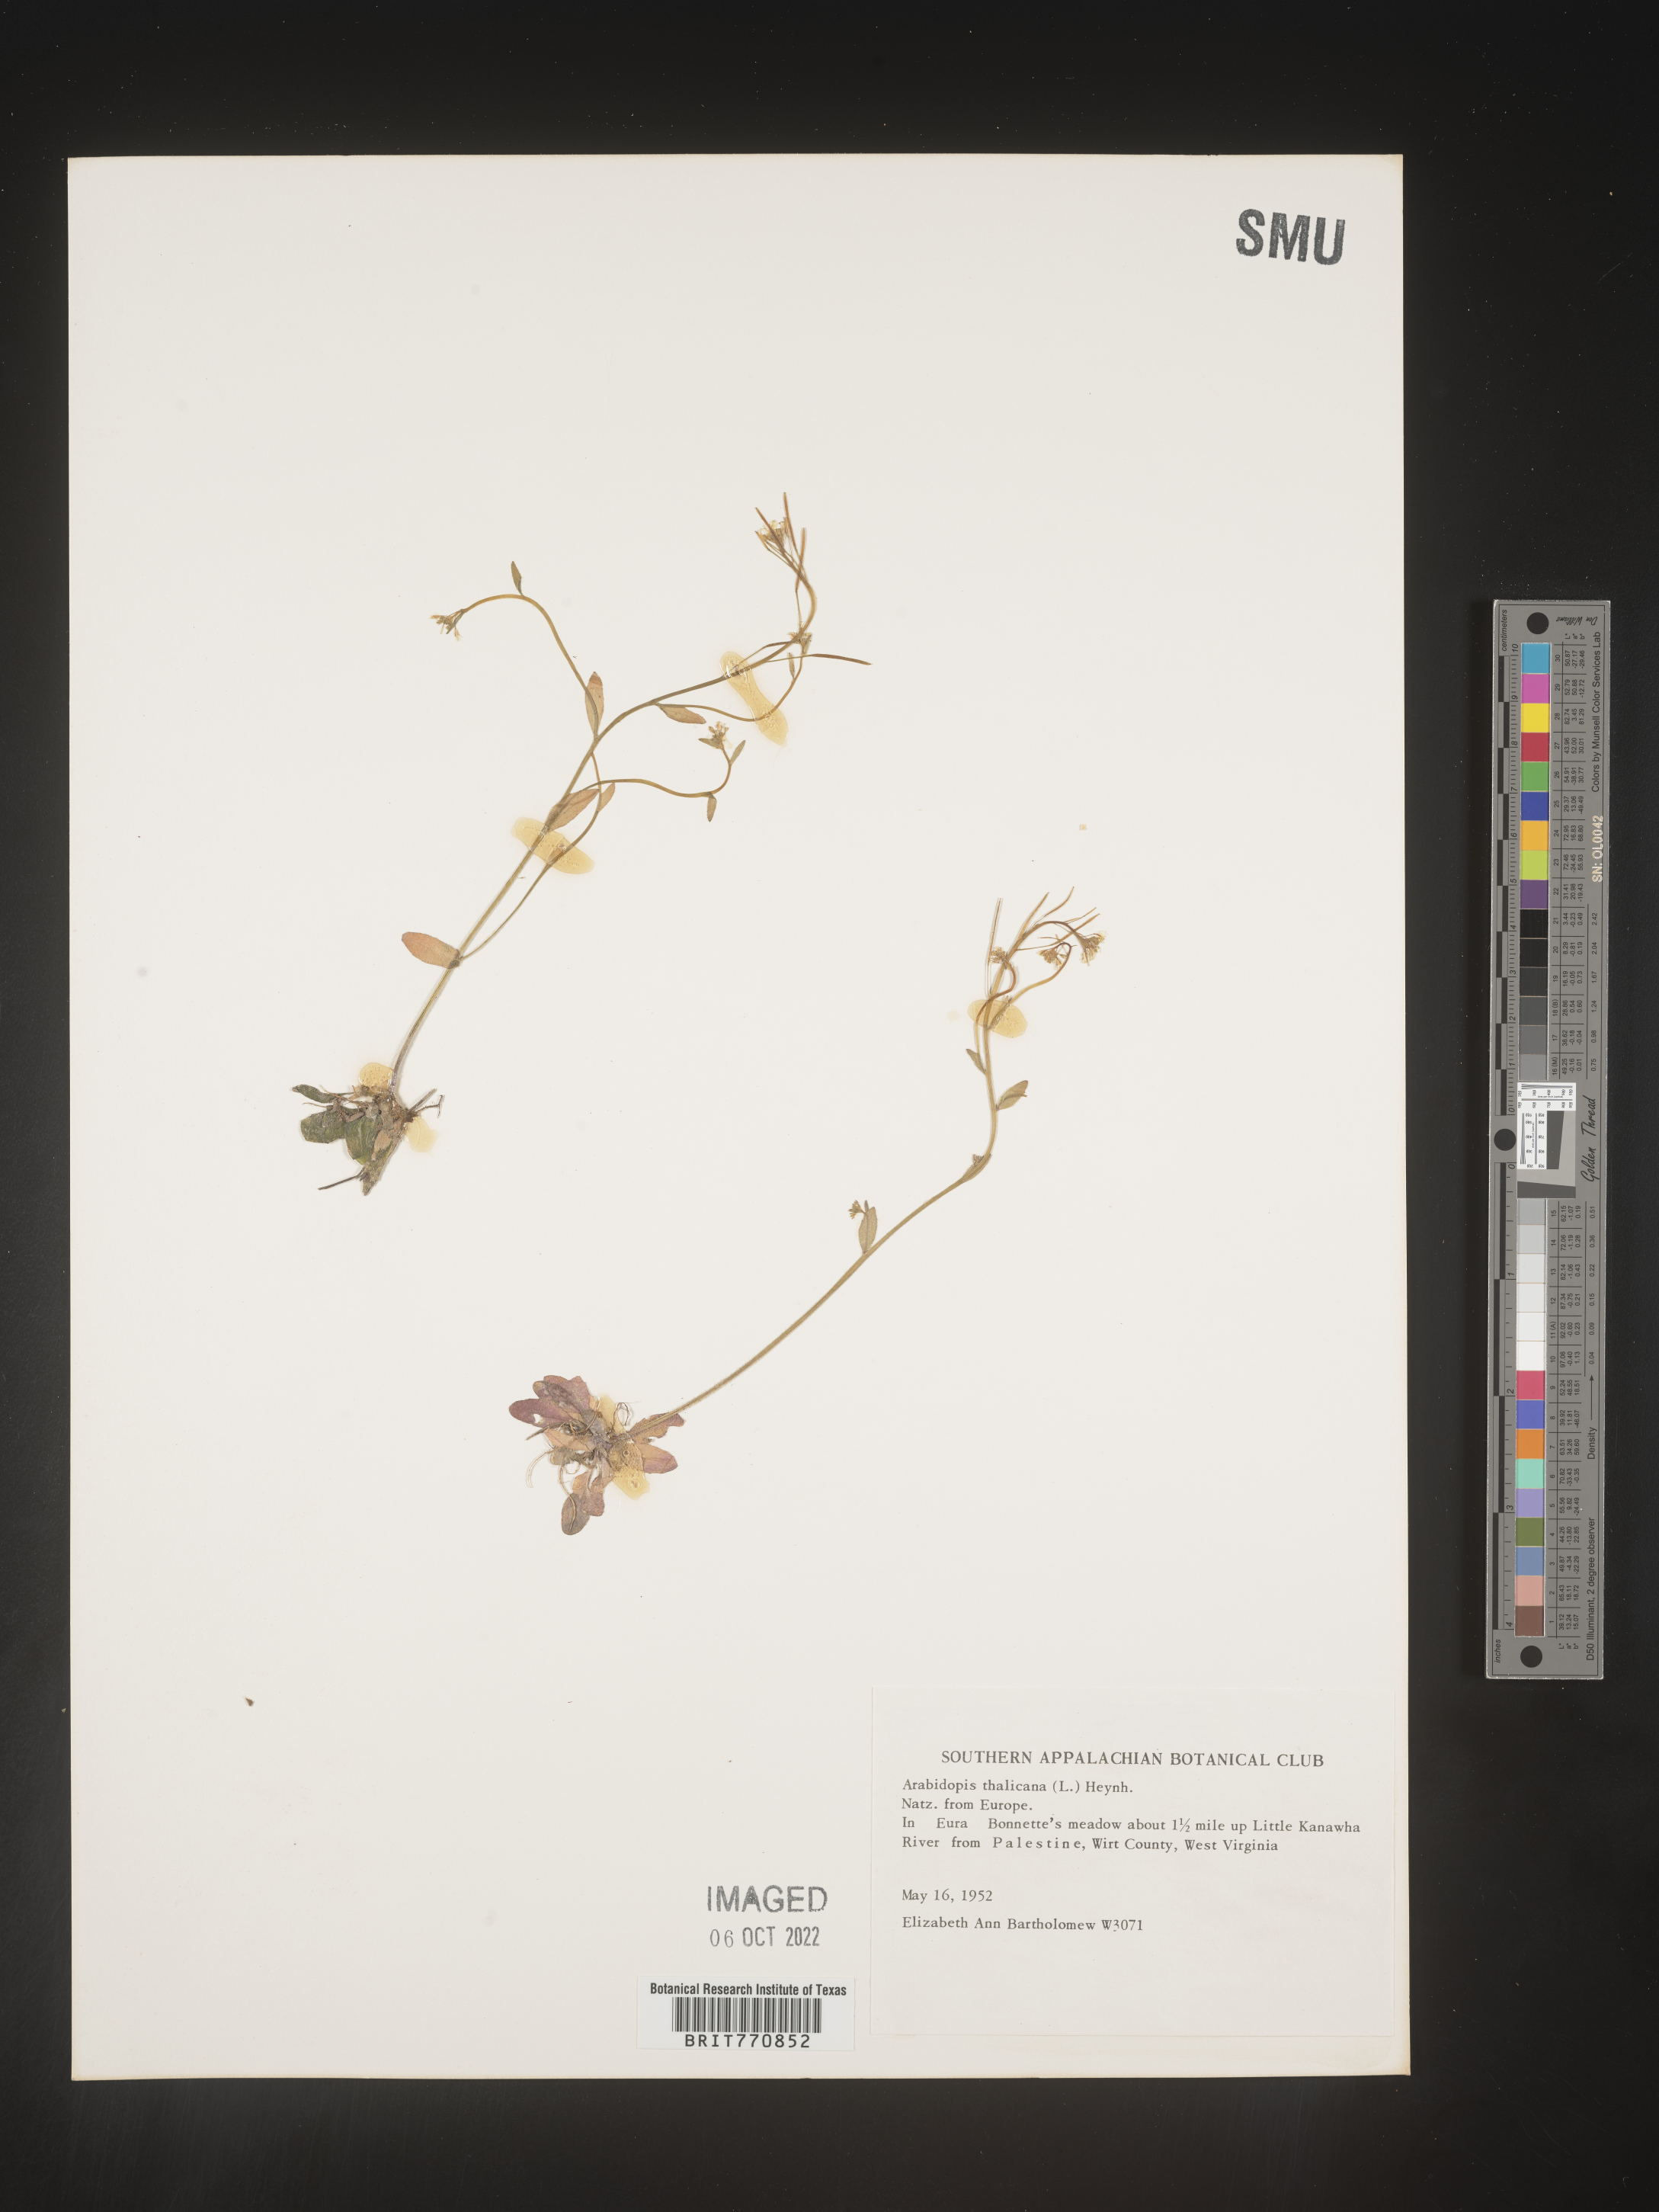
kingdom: Plantae
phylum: Tracheophyta
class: Magnoliopsida
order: Brassicales
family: Brassicaceae
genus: Arabidopsis
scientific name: Arabidopsis thaliana
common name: Thale cress
